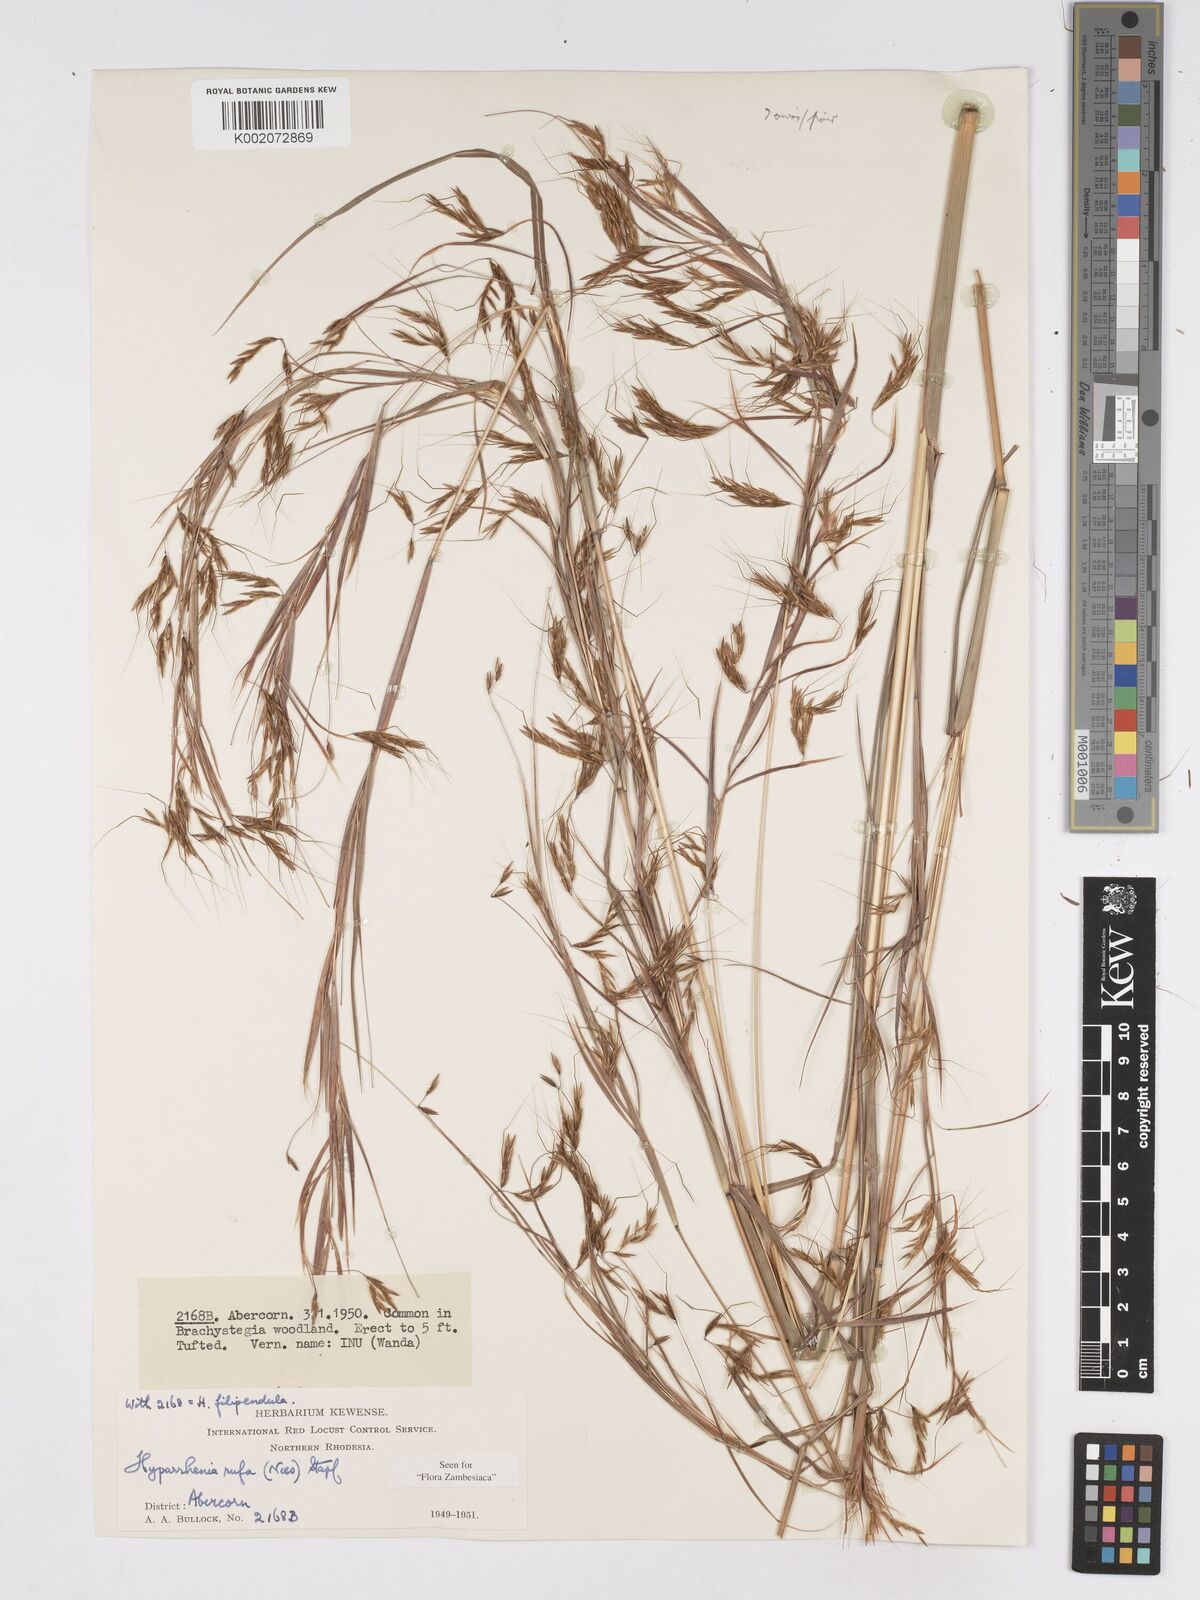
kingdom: Plantae
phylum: Tracheophyta
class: Liliopsida
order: Poales
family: Poaceae
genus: Hyparrhenia
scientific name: Hyparrhenia rufa
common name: Jaraguagrass
